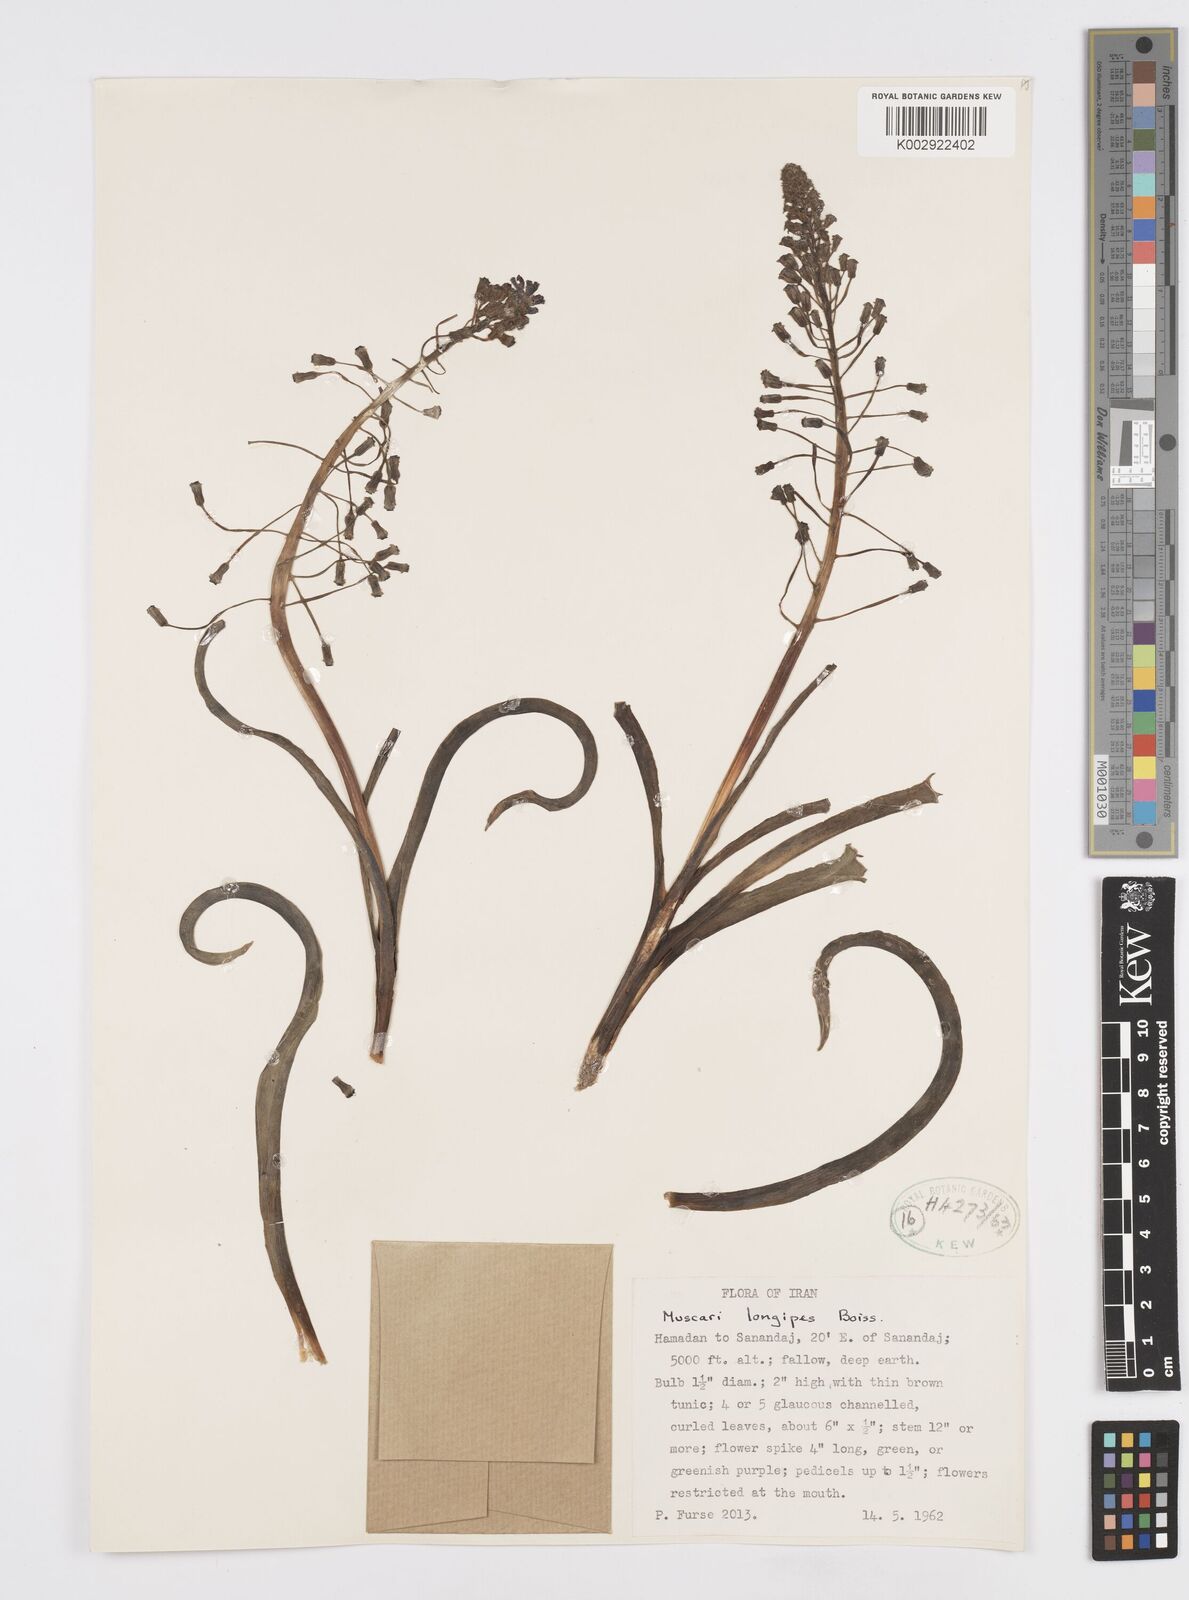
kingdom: Plantae
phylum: Tracheophyta
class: Liliopsida
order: Asparagales
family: Asparagaceae
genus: Muscari
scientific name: Muscari longipes
